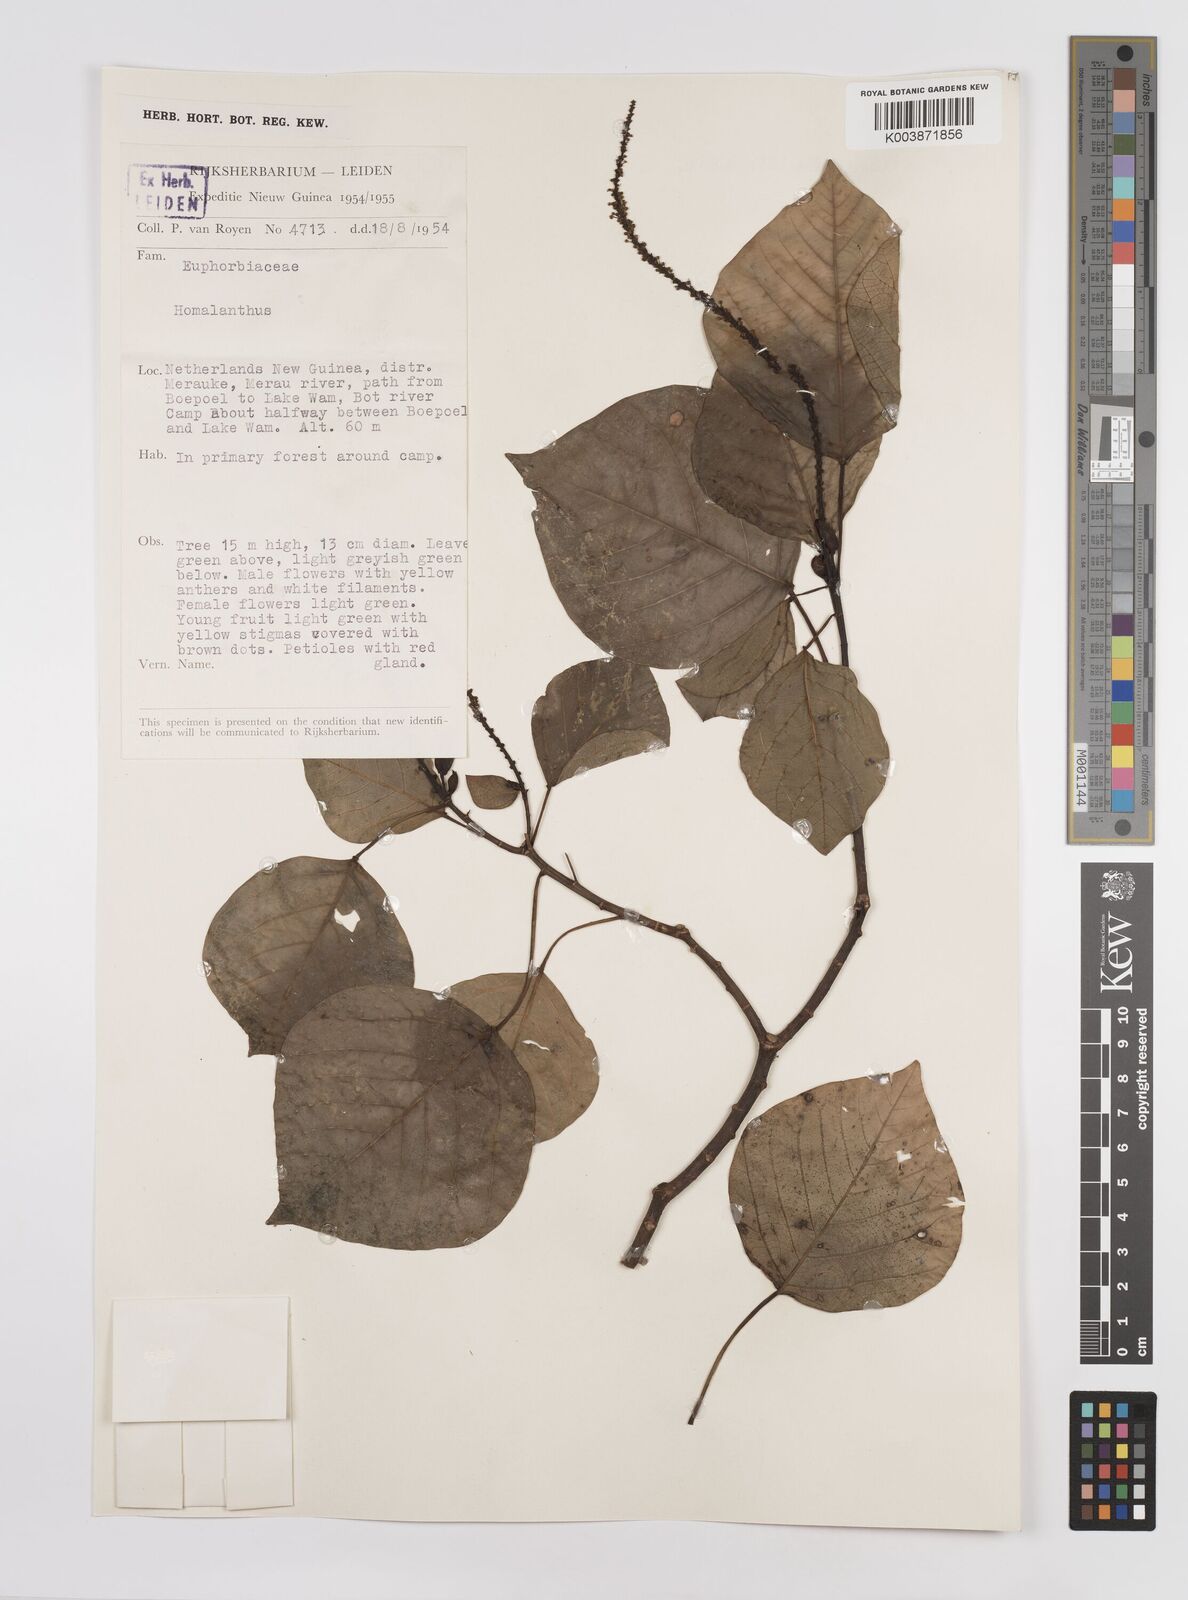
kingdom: Plantae
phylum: Tracheophyta
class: Magnoliopsida
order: Malpighiales
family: Euphorbiaceae
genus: Homalanthus
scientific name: Homalanthus novoguineensis
